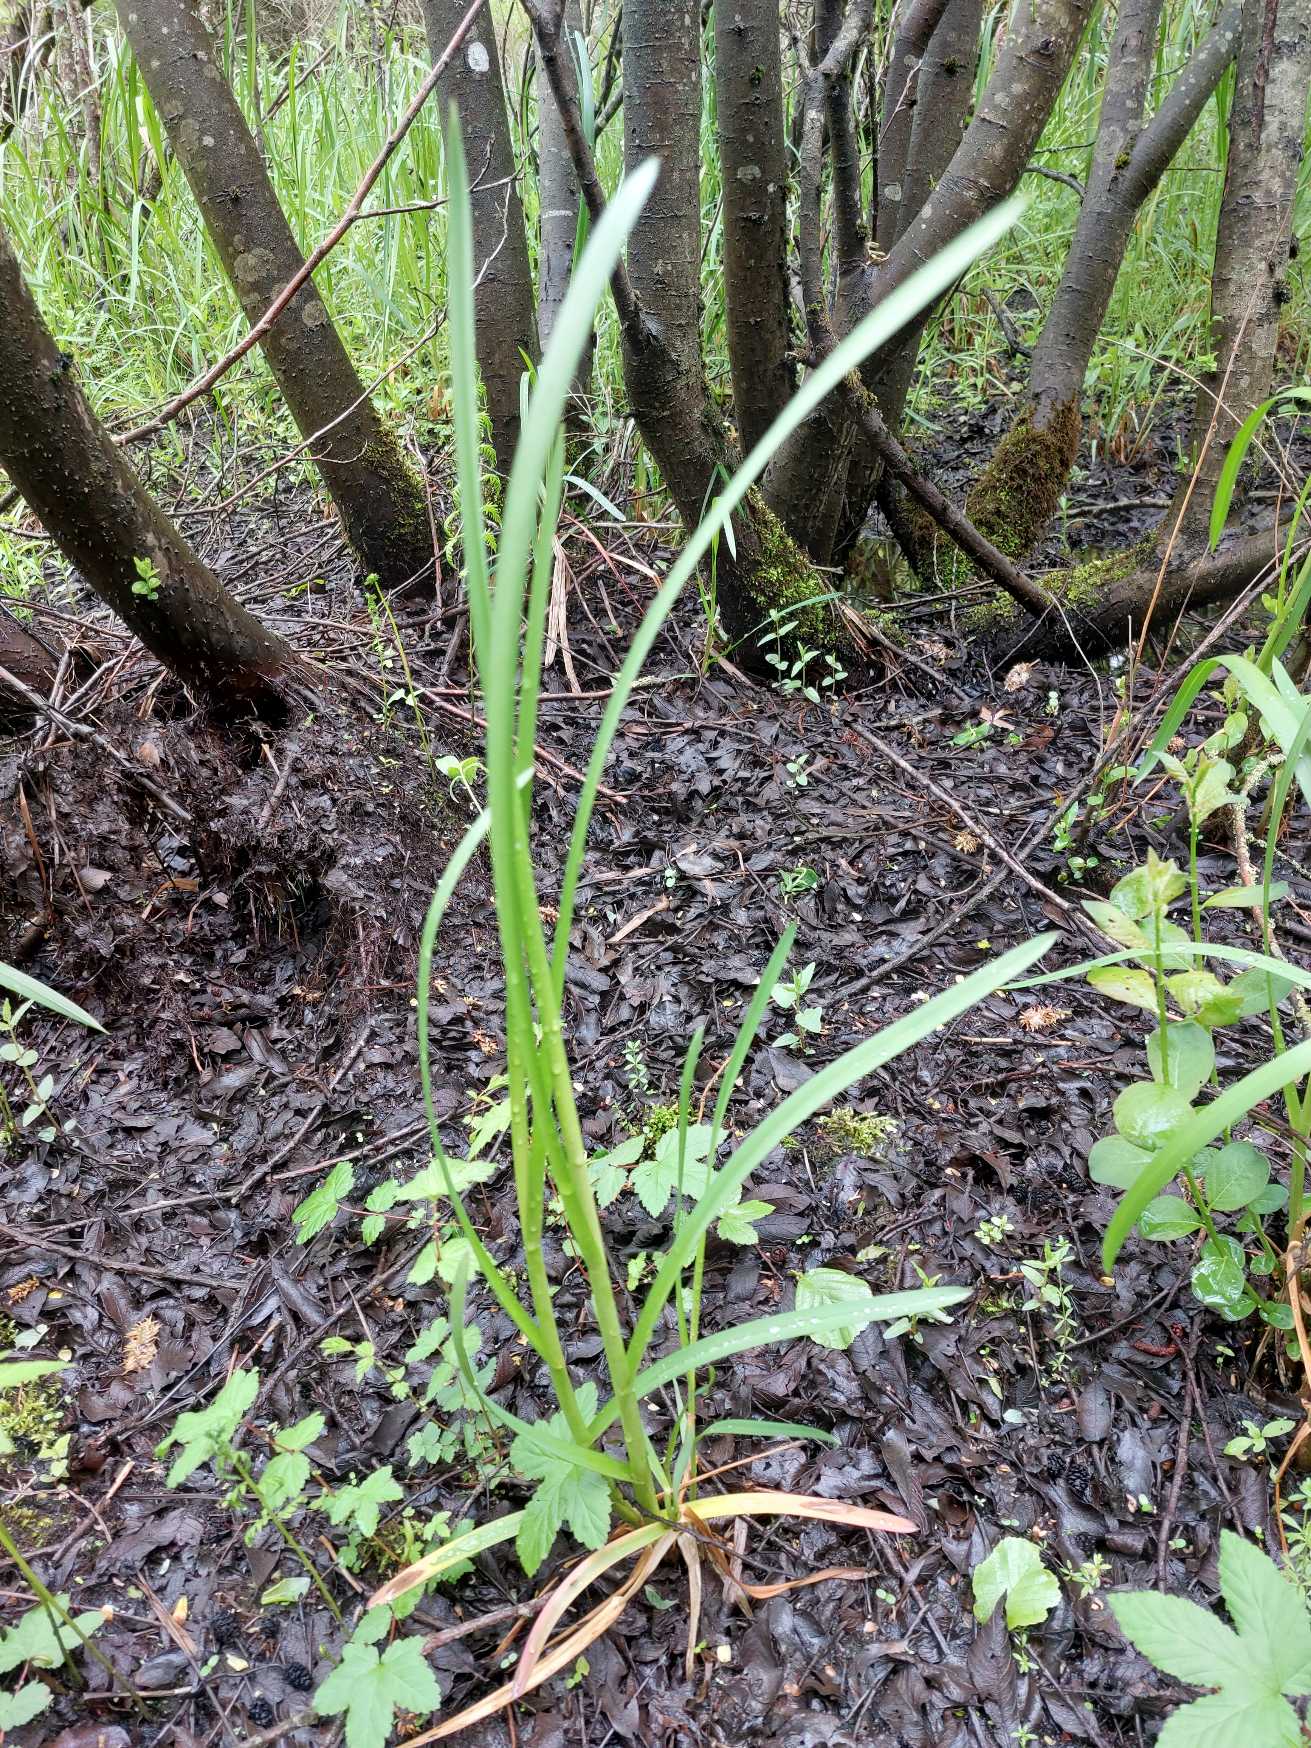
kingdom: Plantae
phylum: Tracheophyta
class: Liliopsida
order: Poales
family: Poaceae
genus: Glyceria
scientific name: Glyceria maxima
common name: Høj sødgræs
